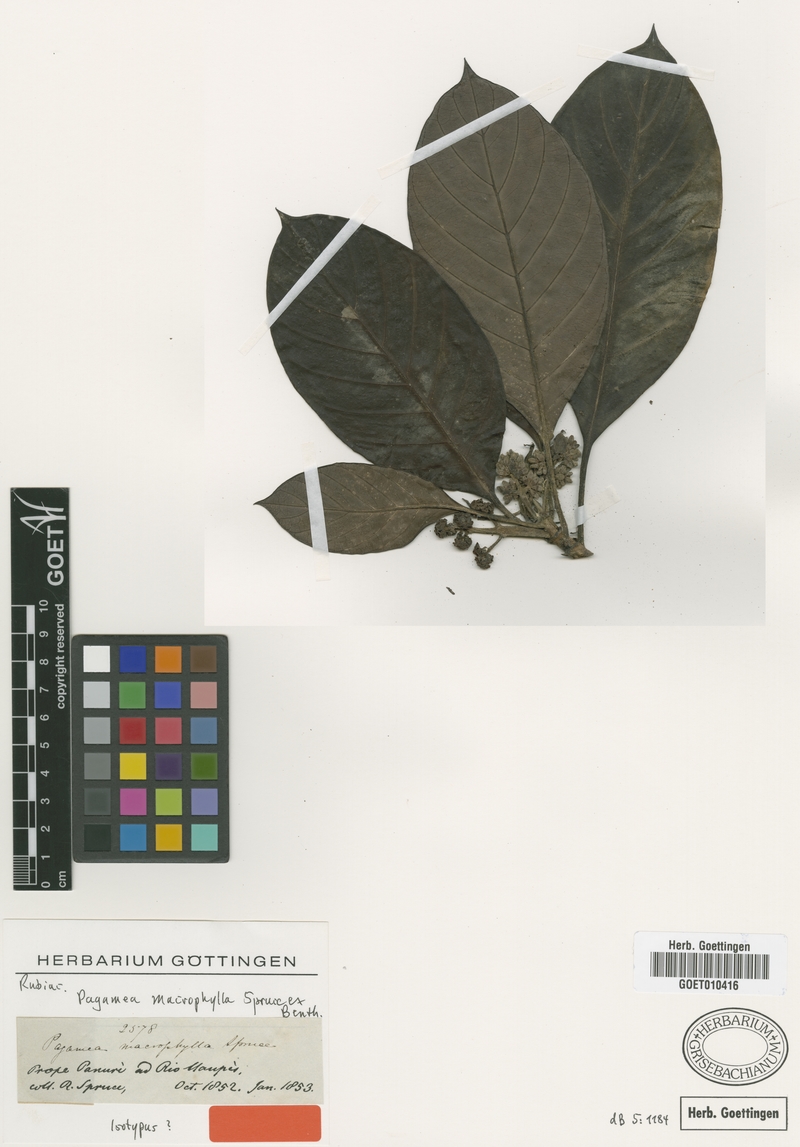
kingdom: Plantae
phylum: Tracheophyta
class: Magnoliopsida
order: Gentianales
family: Rubiaceae
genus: Pagamea
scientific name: Pagamea macrophylla
